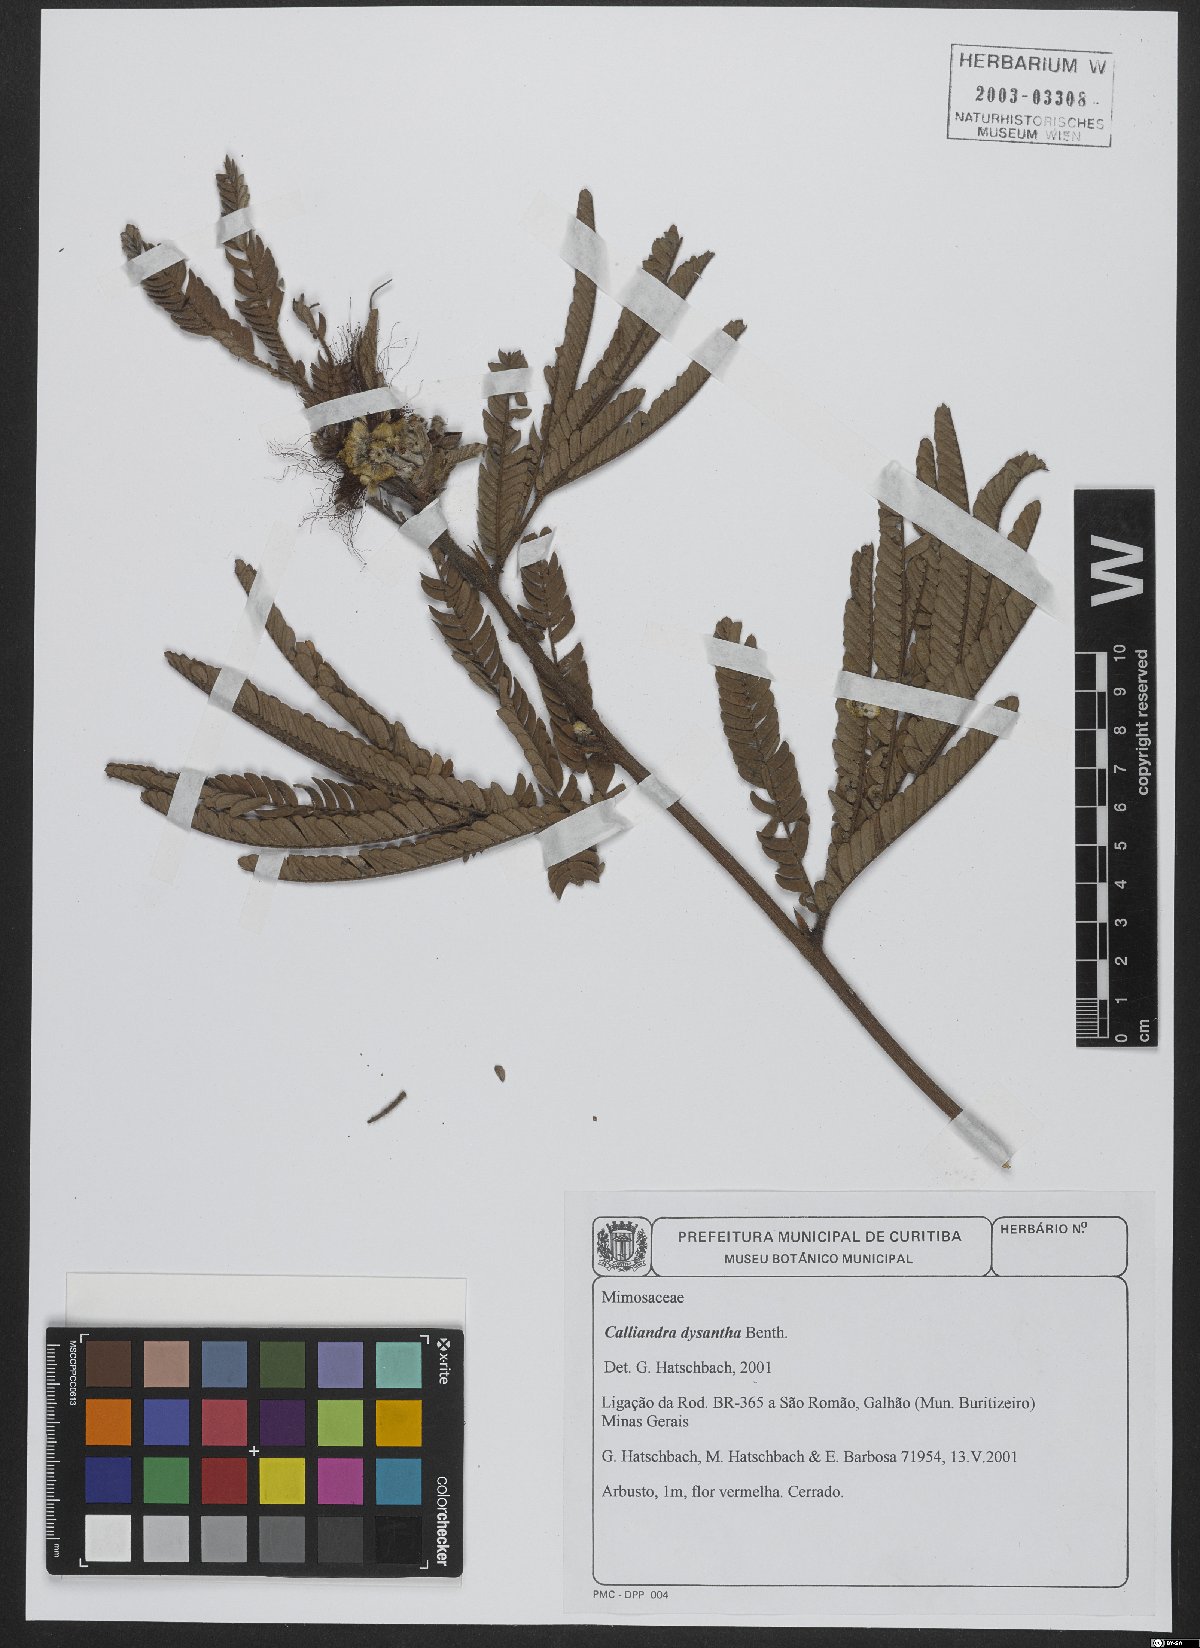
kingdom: Plantae
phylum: Tracheophyta
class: Magnoliopsida
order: Fabales
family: Fabaceae
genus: Calliandra
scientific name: Calliandra dysantha
